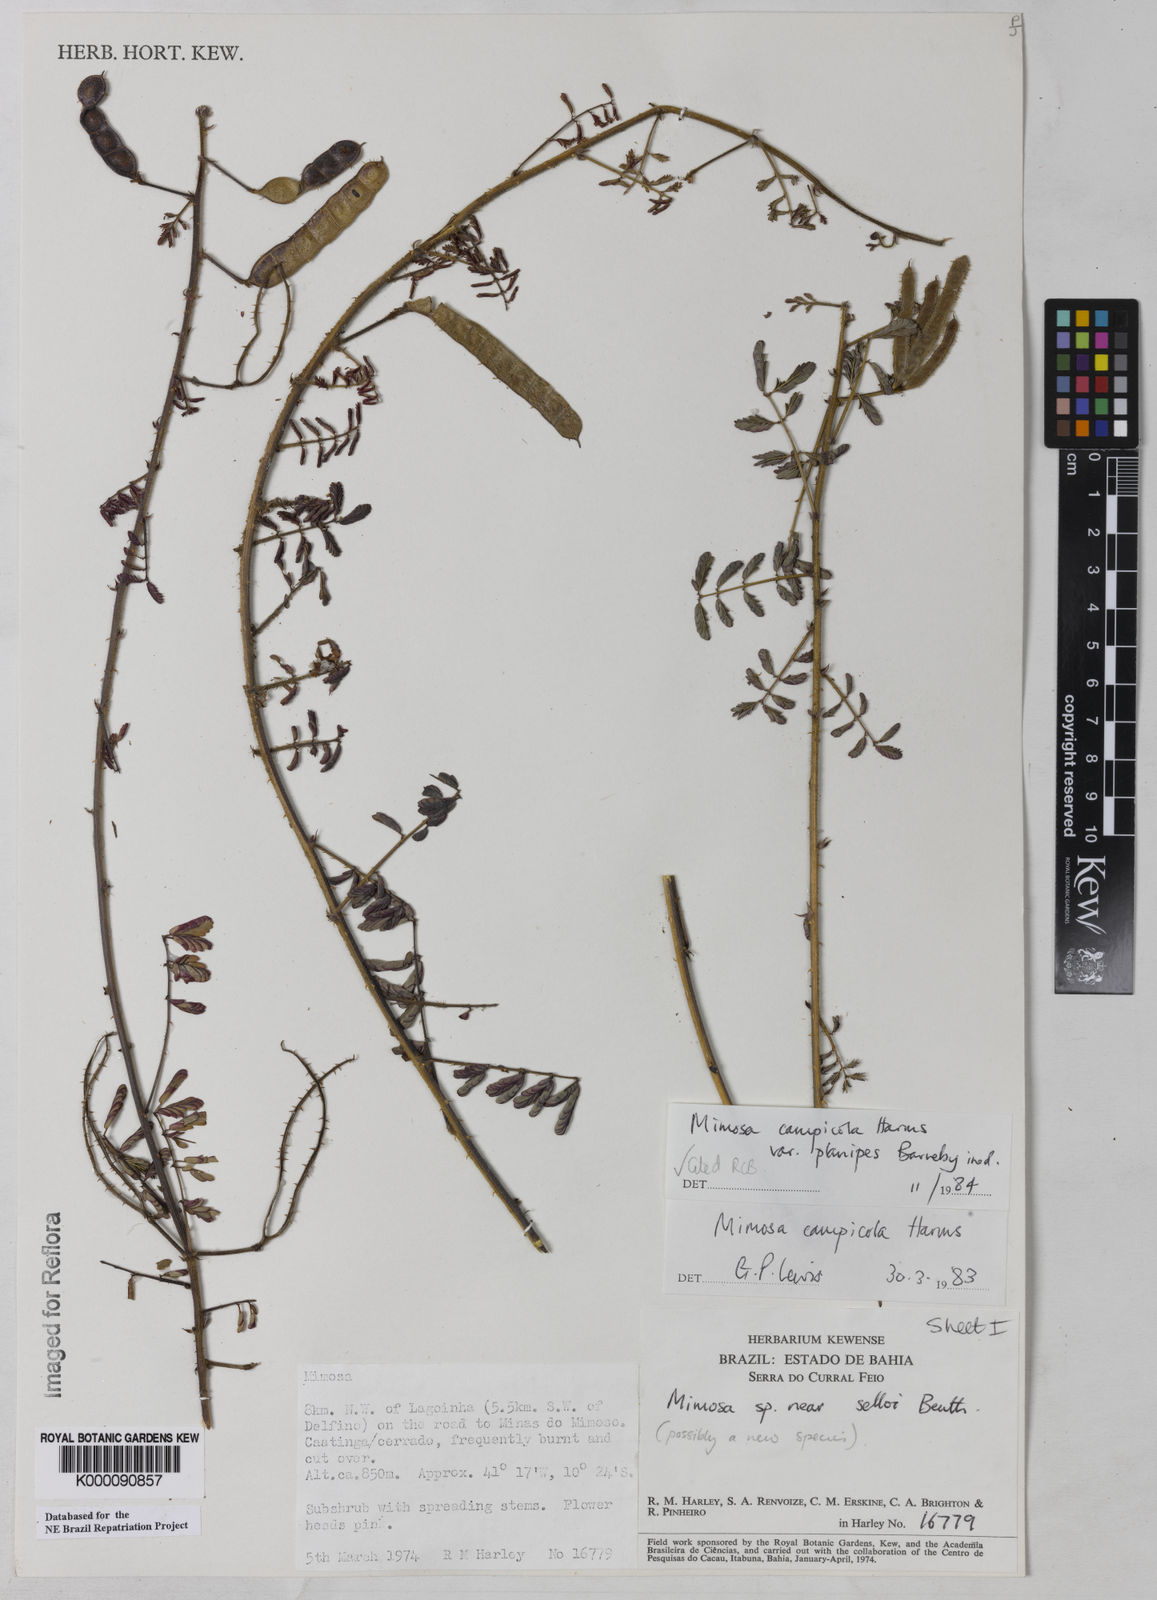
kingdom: Plantae
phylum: Tracheophyta
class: Magnoliopsida
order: Fabales
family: Fabaceae
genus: Mimosa
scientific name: Mimosa campicola
